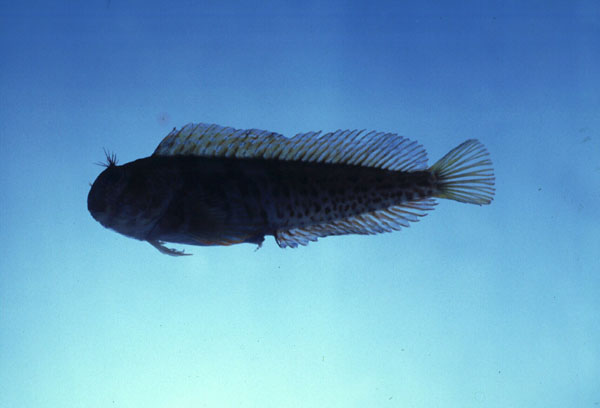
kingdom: Animalia
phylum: Chordata
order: Perciformes
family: Blenniidae
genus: Parablennius
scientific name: Parablennius pilicornis
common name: Ringneck blenny
